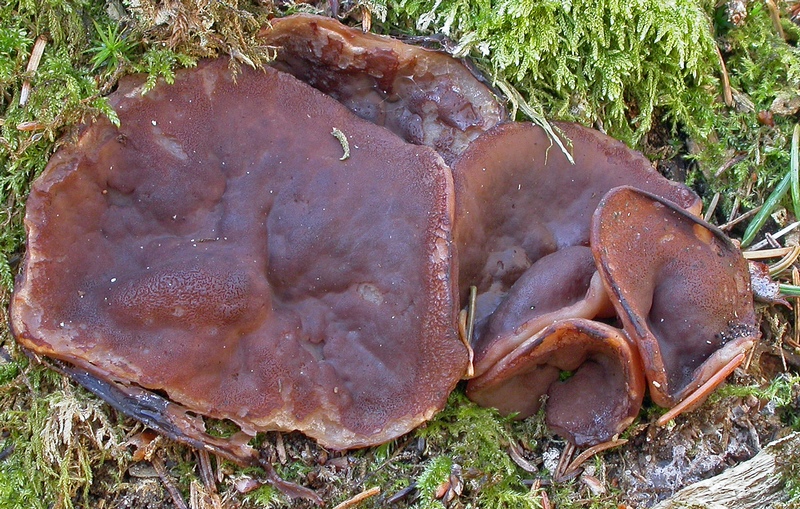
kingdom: Fungi
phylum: Ascomycota
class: Pezizomycetes
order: Pezizales
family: Discinaceae
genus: Discina
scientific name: Discina ancilis
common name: udbredt stenmorkel
